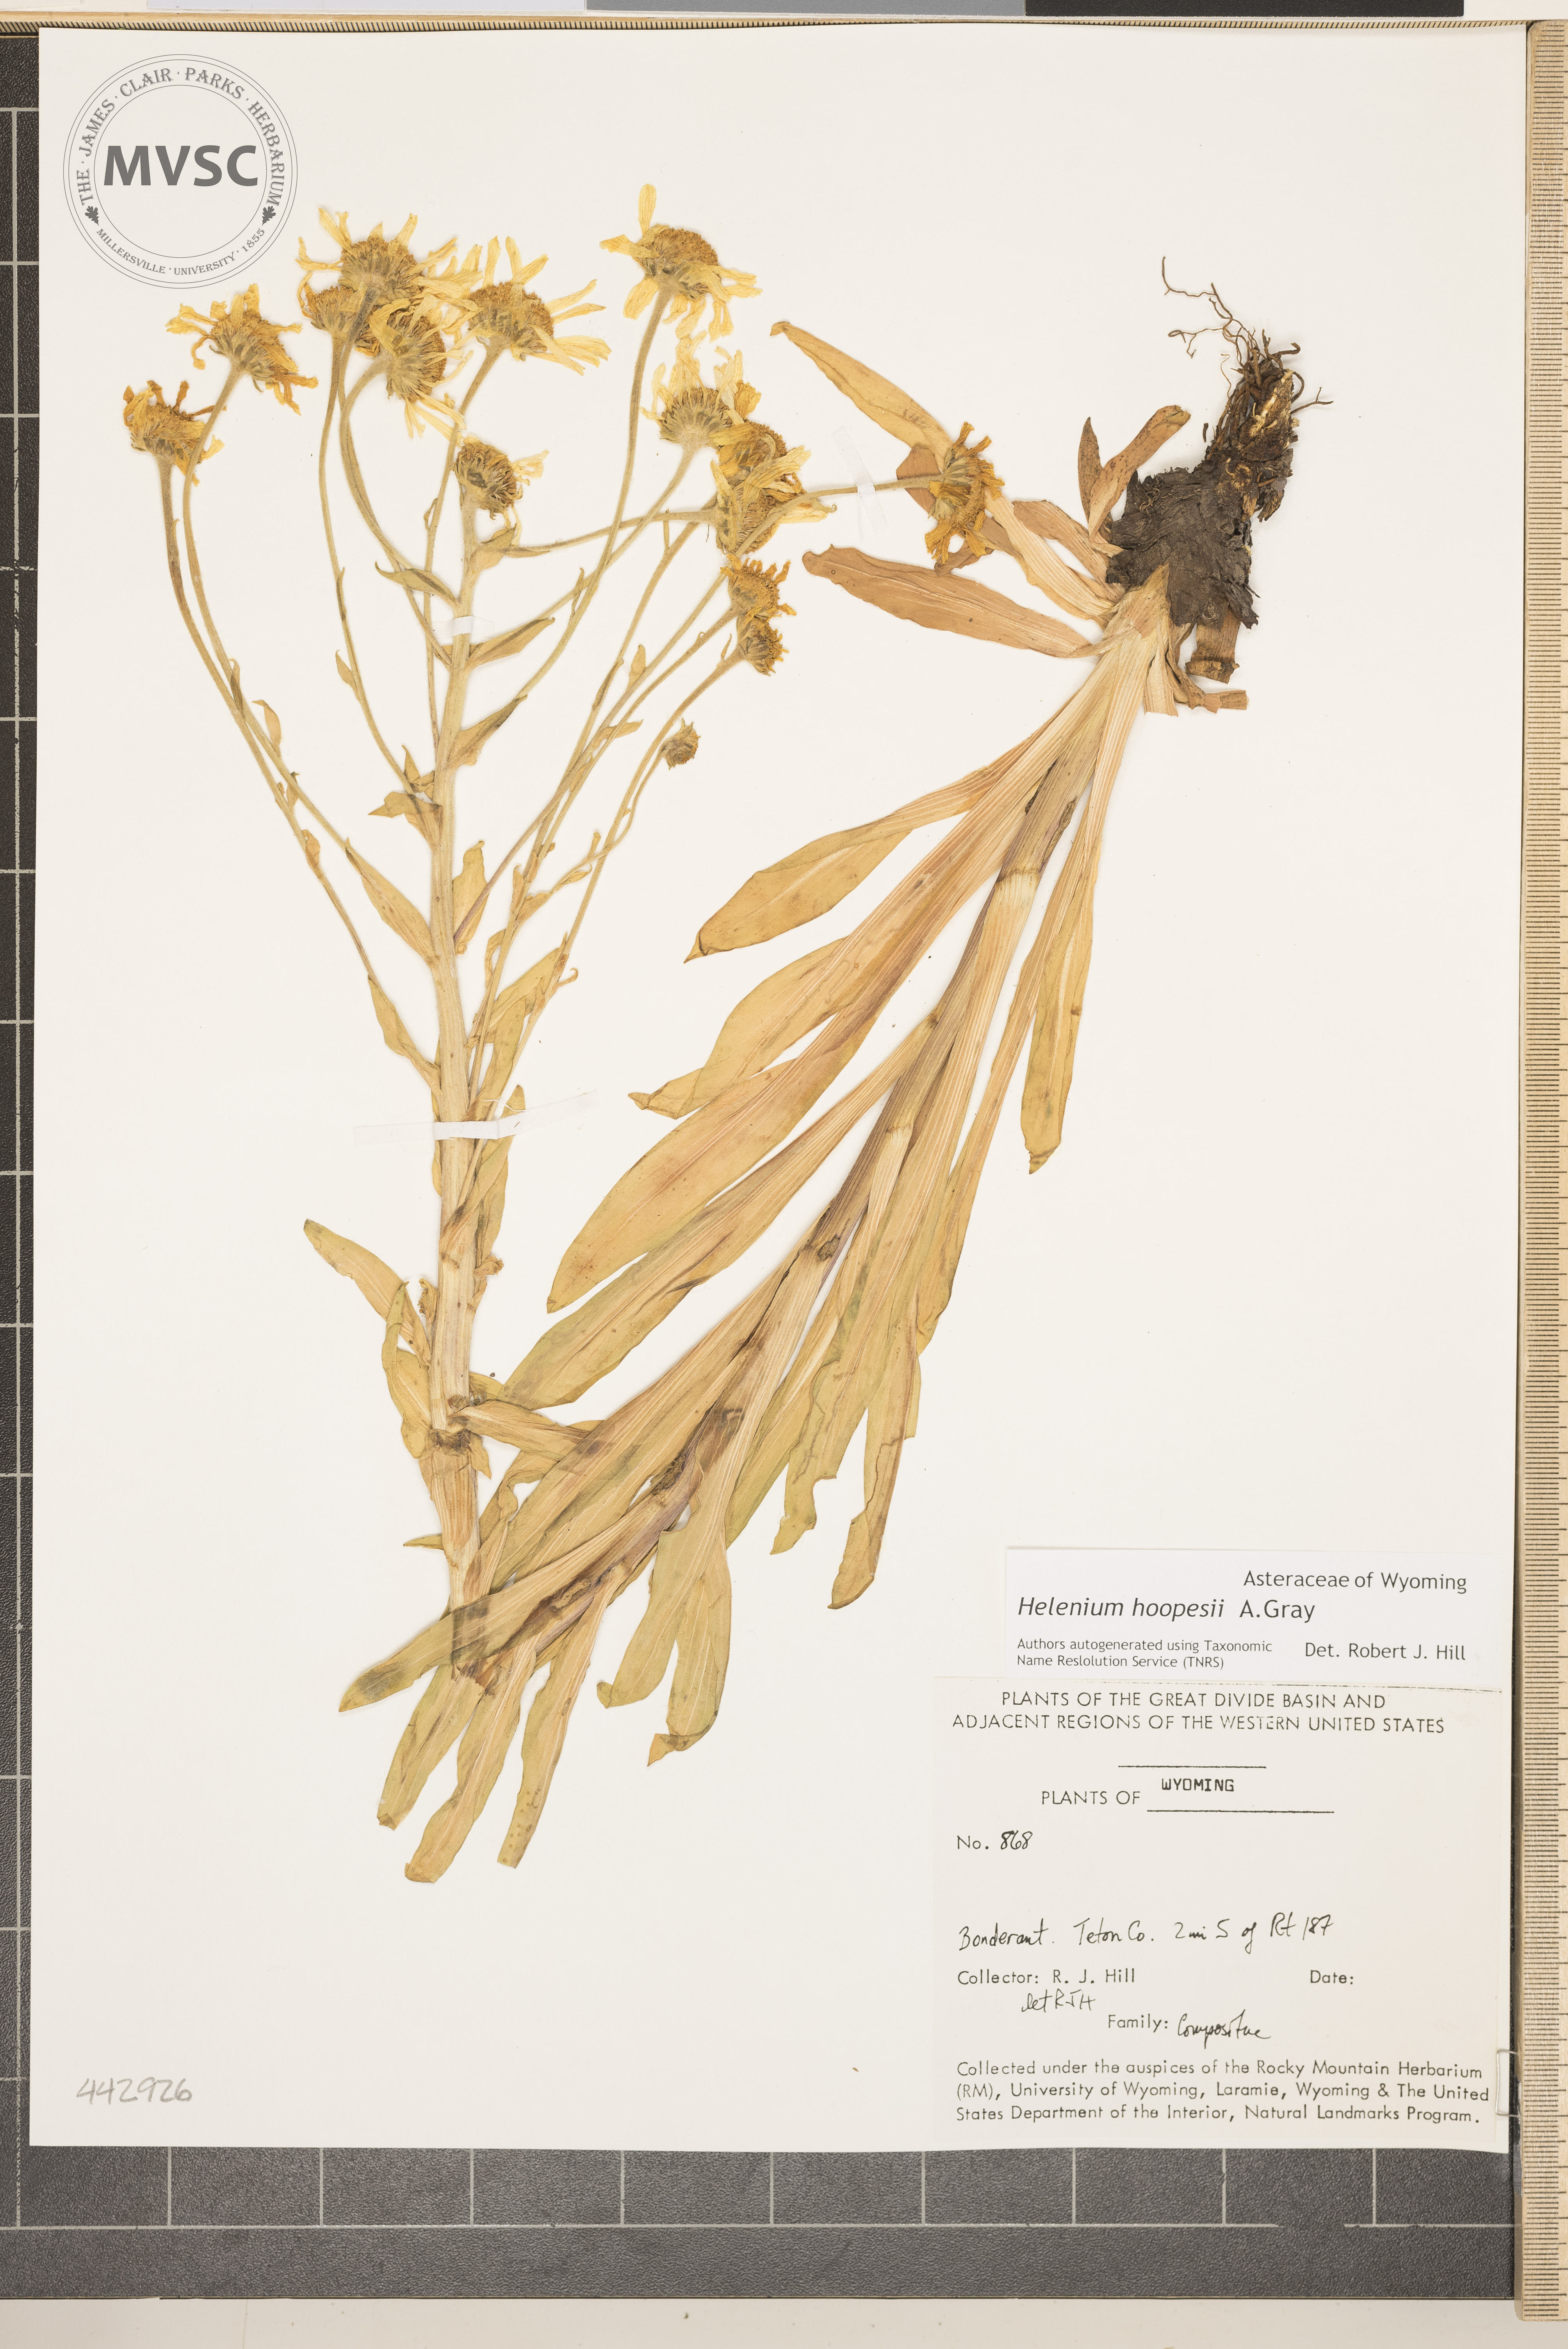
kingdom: Plantae
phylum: Tracheophyta
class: Magnoliopsida
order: Asterales
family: Asteraceae
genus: Hymenoxys
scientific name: Hymenoxys hoopesii
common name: Orange-sneezeweed
